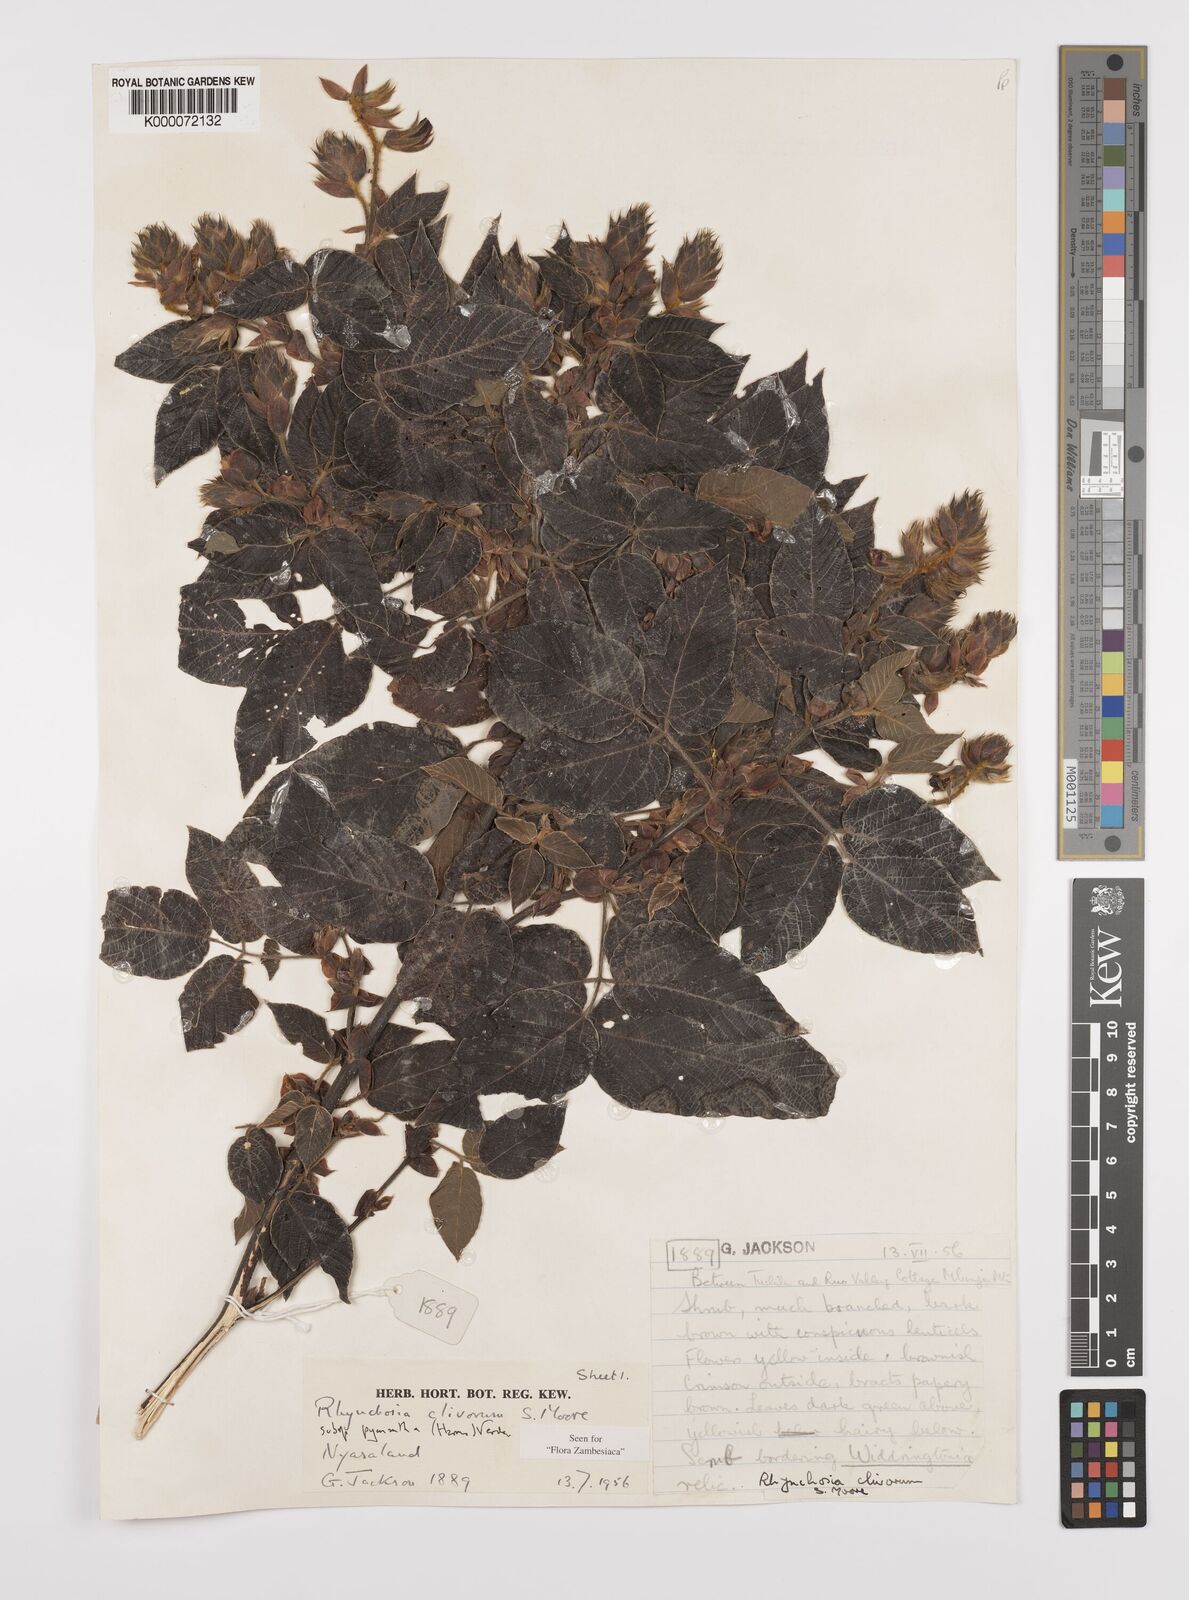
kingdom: Plantae
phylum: Tracheophyta
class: Magnoliopsida
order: Fabales
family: Fabaceae
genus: Rhynchosia
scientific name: Rhynchosia clivorum
